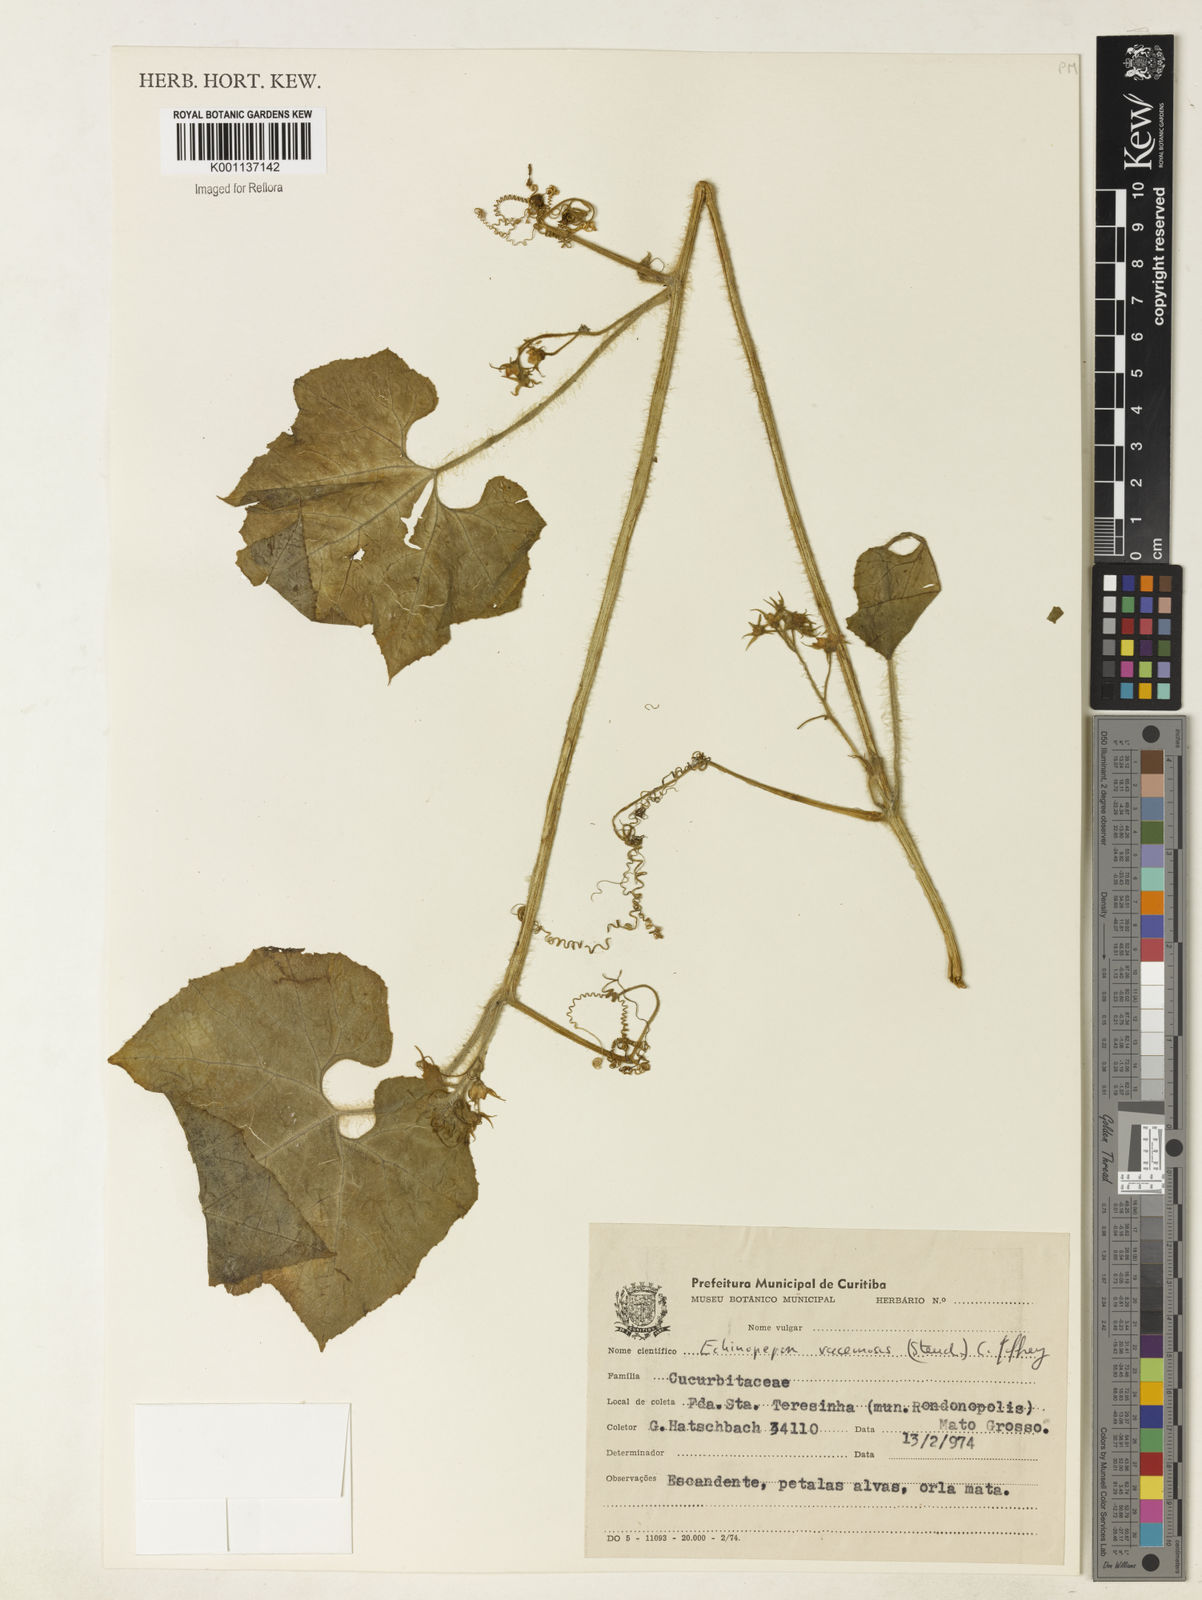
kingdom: Plantae
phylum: Tracheophyta
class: Magnoliopsida
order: Cucurbitales
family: Cucurbitaceae
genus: Echinopepon
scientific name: Echinopepon racemosus
